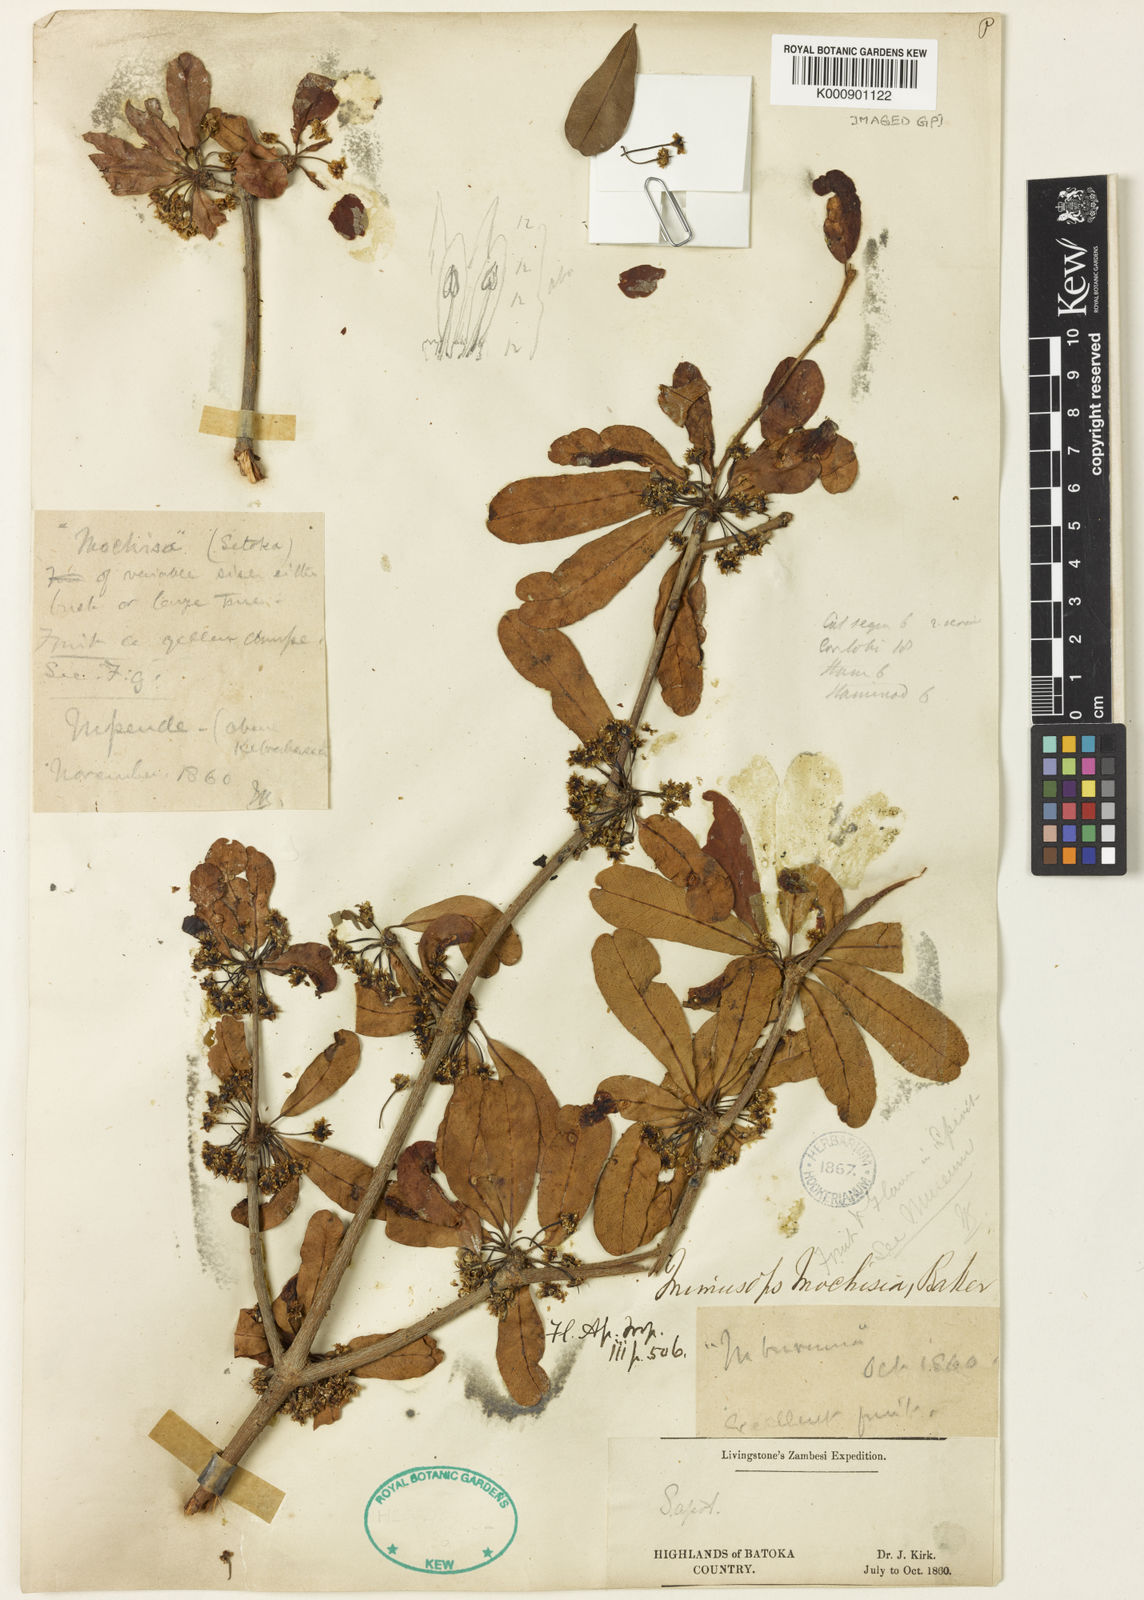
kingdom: Plantae
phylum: Tracheophyta
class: Magnoliopsida
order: Ericales
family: Sapotaceae
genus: Manilkara
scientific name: Manilkara mochisia
